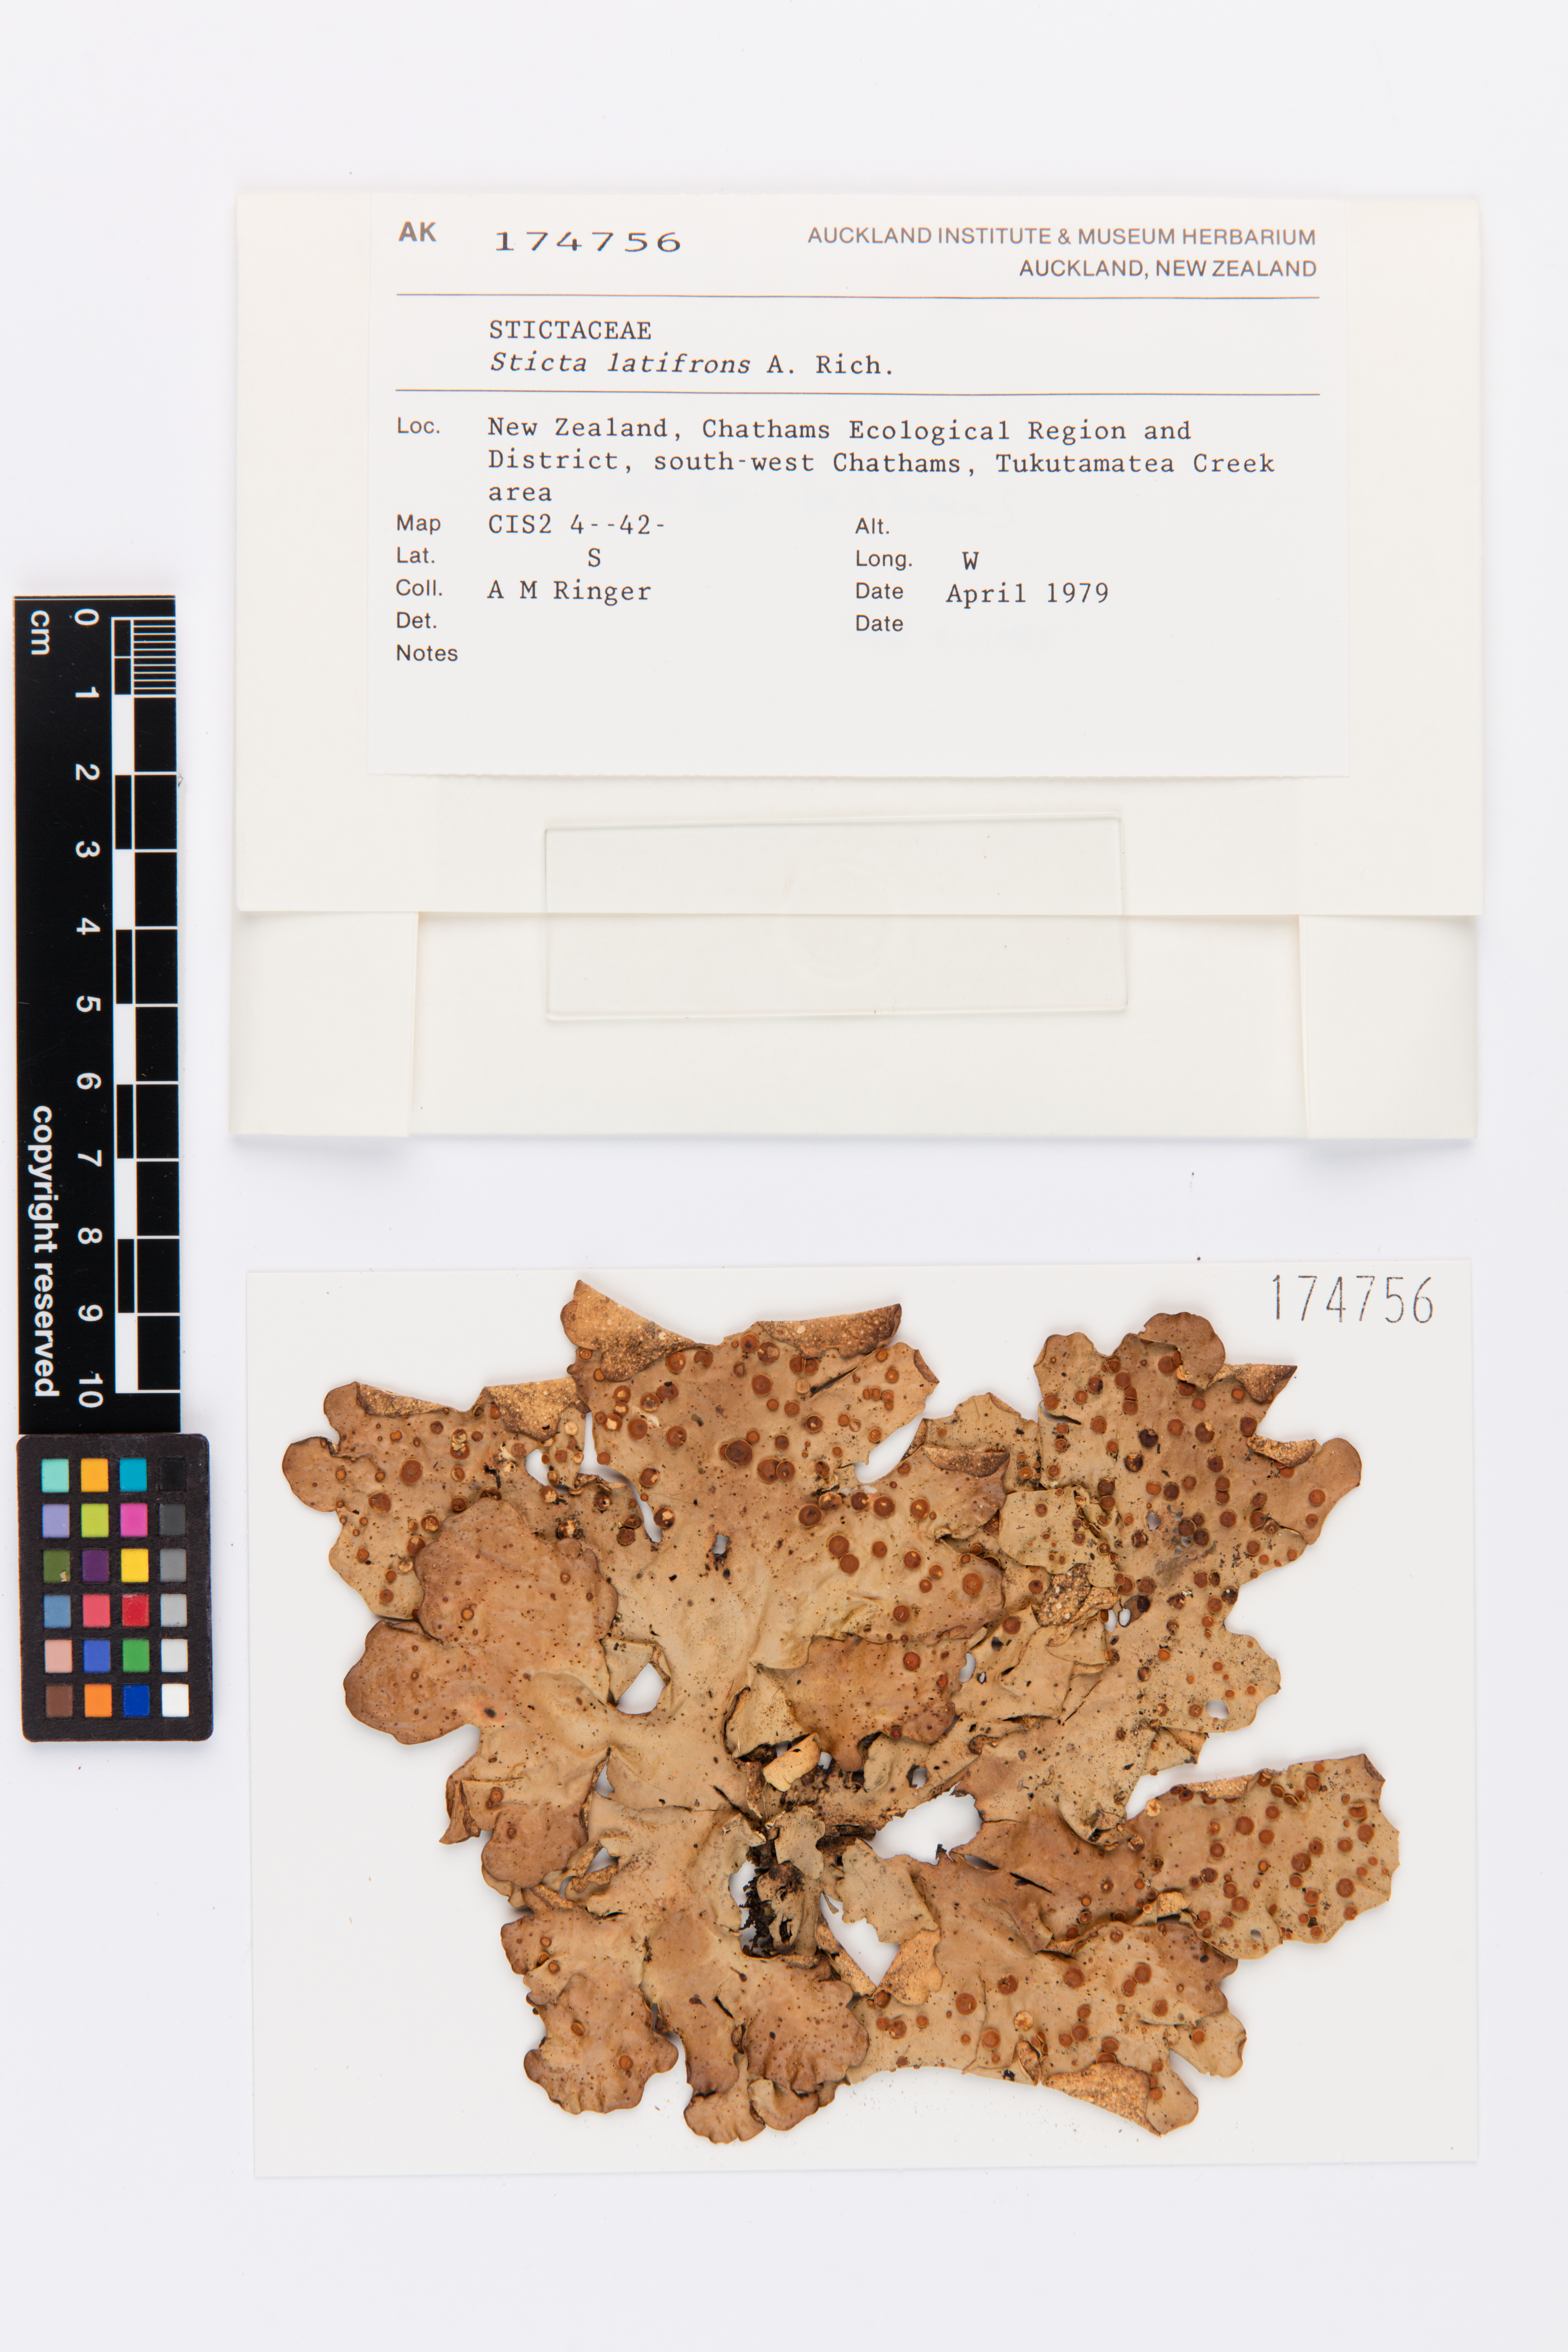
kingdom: Fungi
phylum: Ascomycota
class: Lecanoromycetes
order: Peltigerales
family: Lobariaceae
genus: Sticta
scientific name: Sticta latifrons
